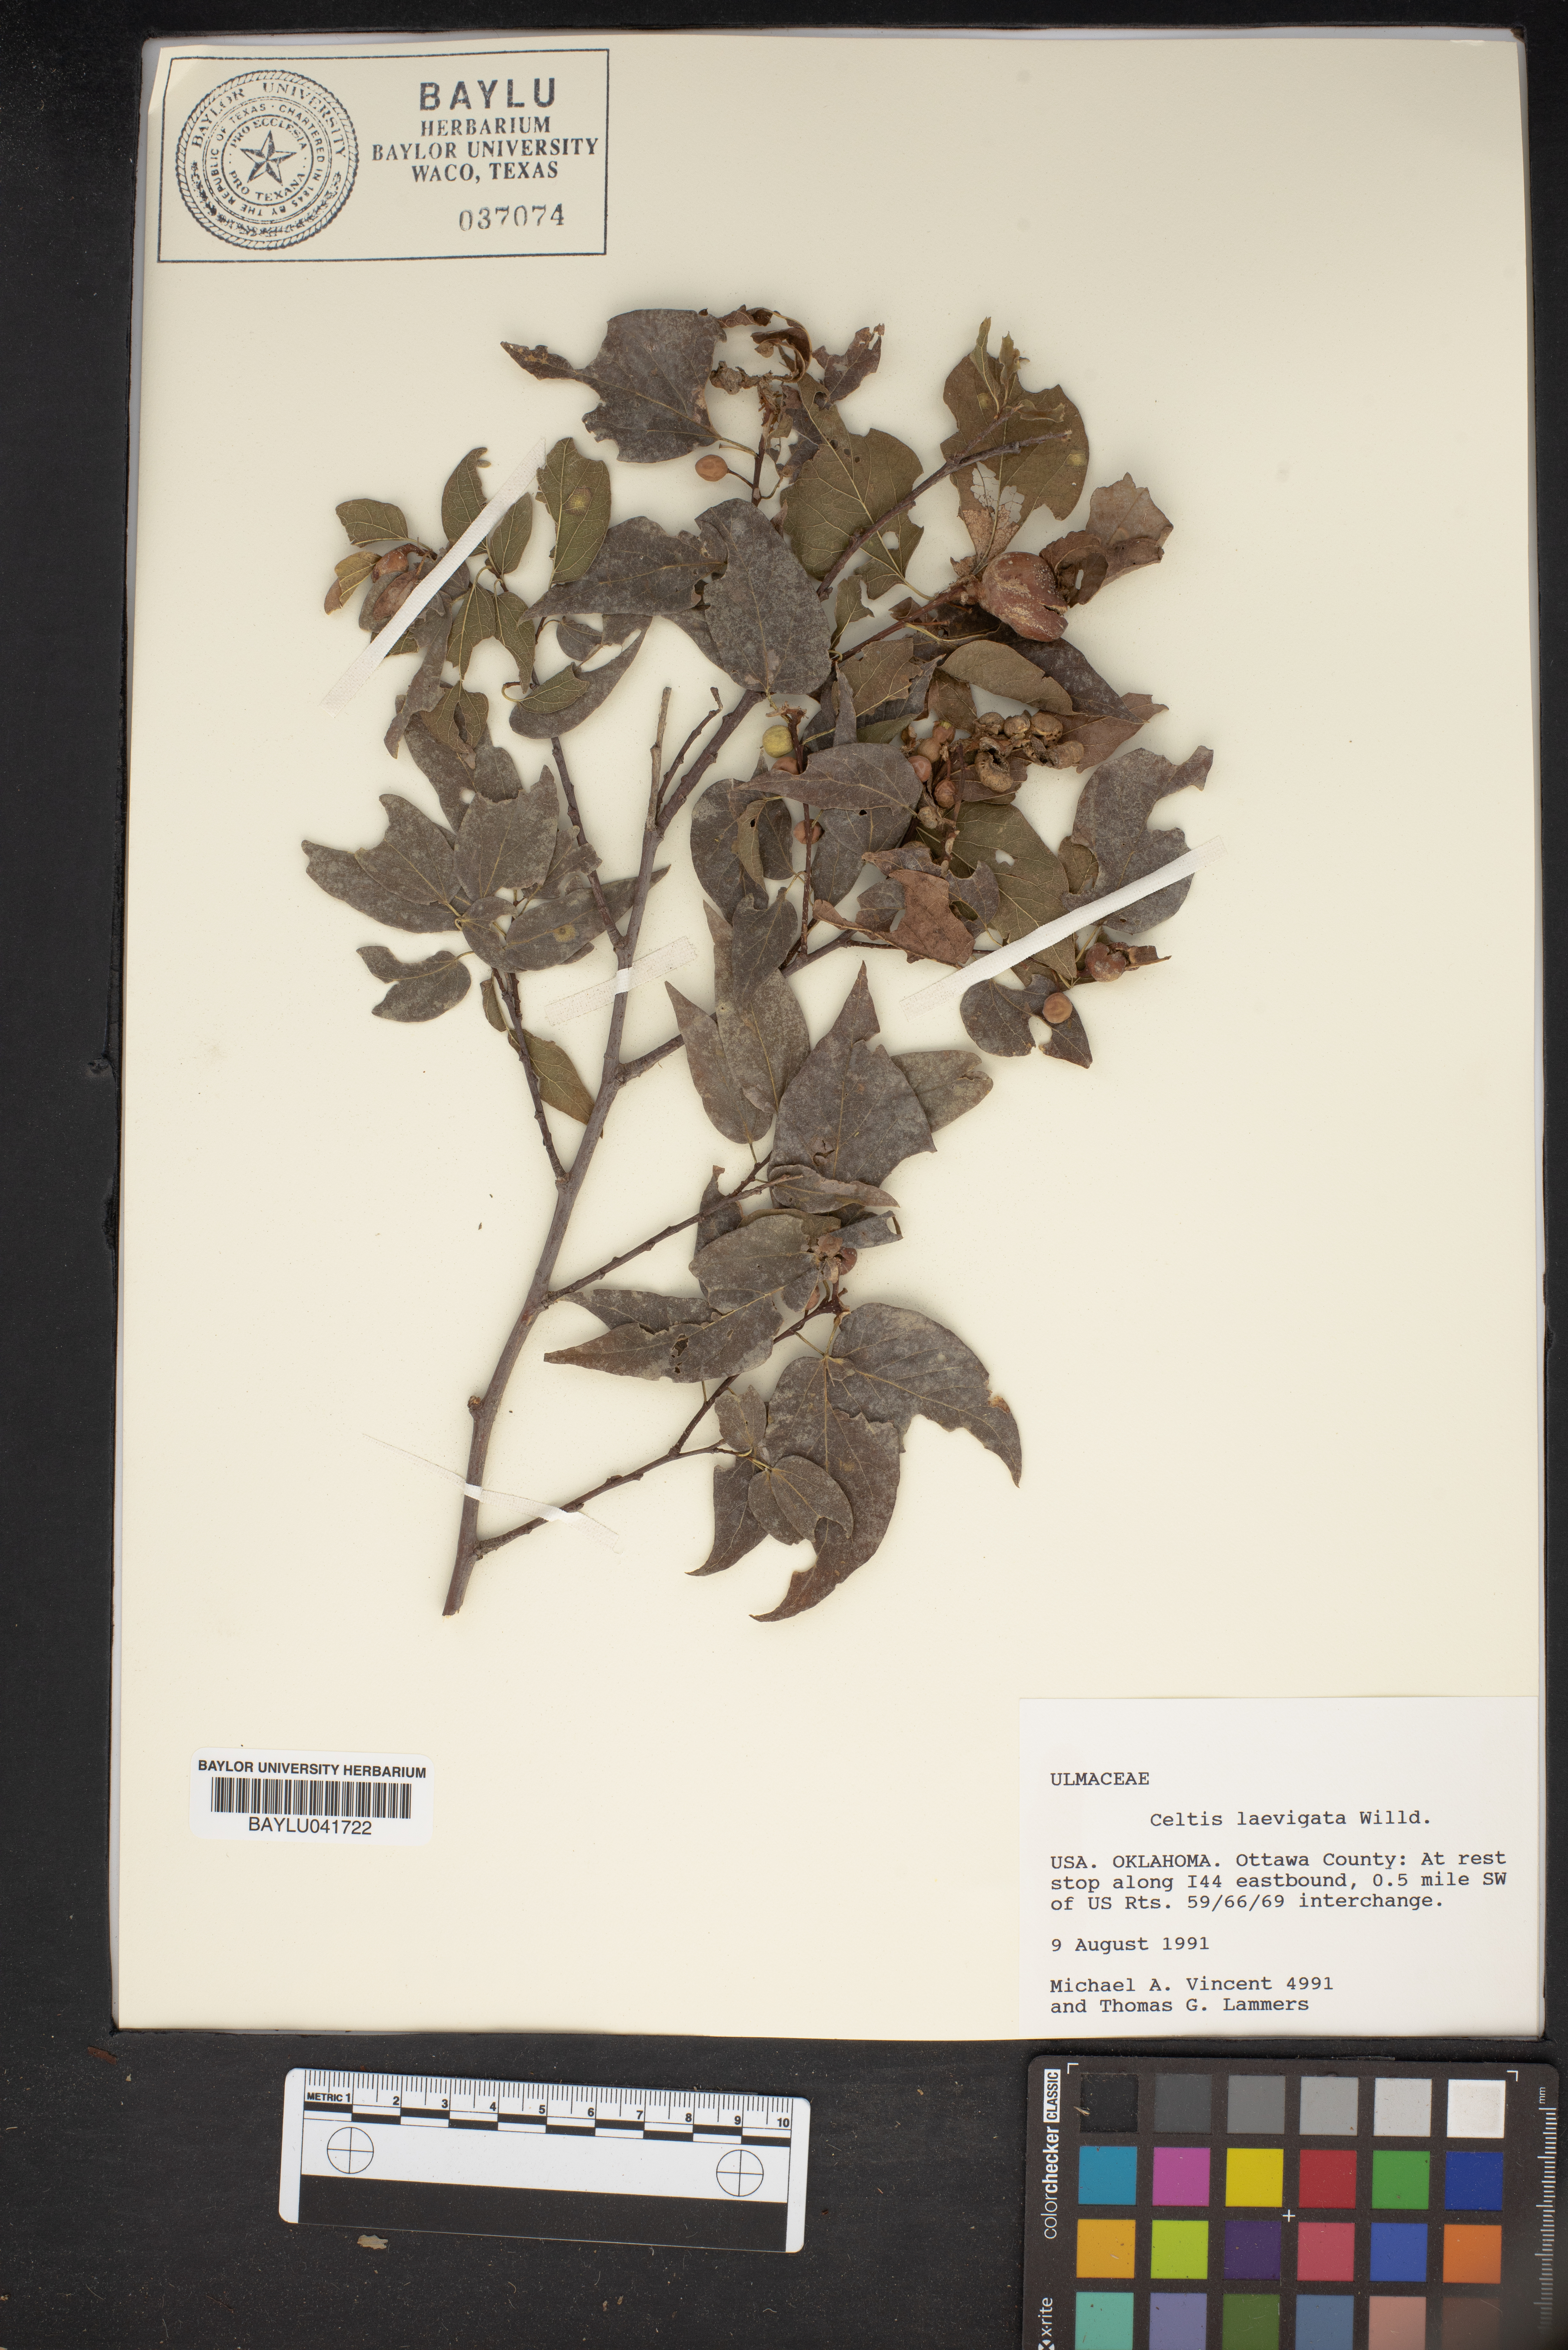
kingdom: Plantae
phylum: Tracheophyta
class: Magnoliopsida
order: Rosales
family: Cannabaceae
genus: Celtis
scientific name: Celtis laevigata
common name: Sugarberry
